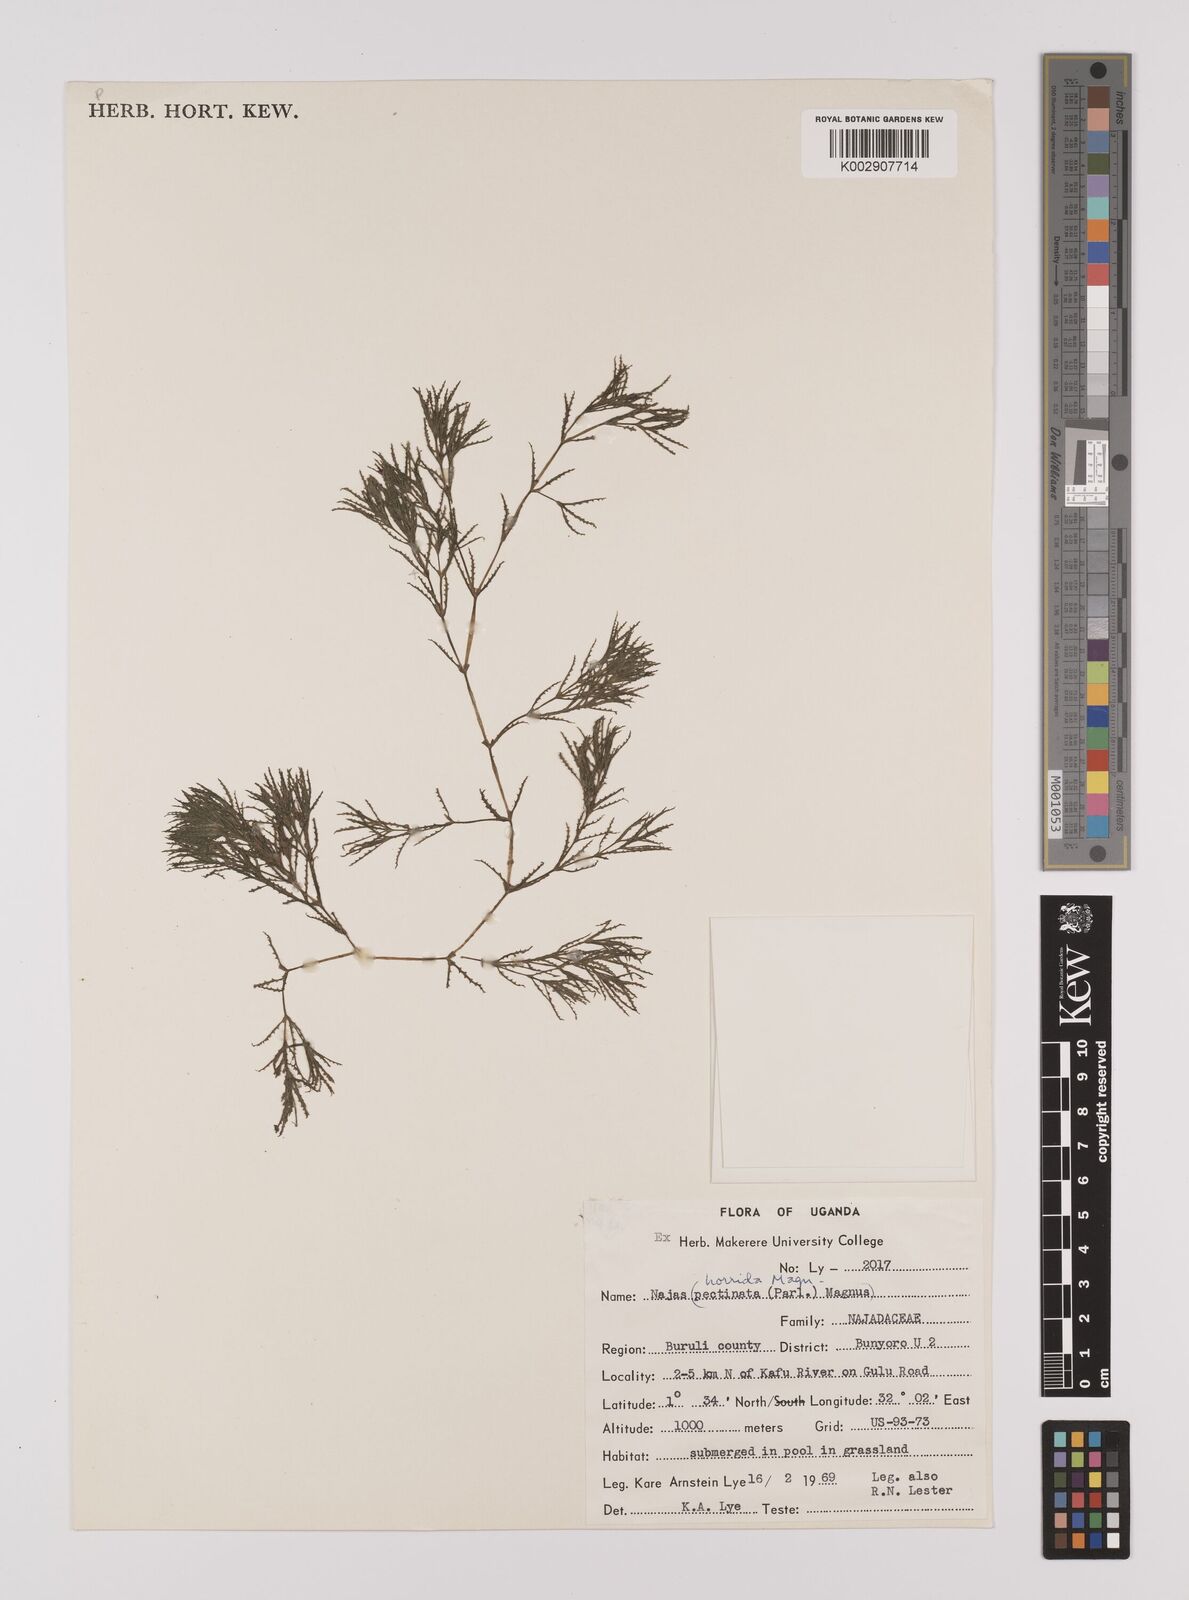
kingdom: Plantae
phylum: Tracheophyta
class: Liliopsida
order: Alismatales
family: Hydrocharitaceae
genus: Najas
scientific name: Najas horrida
